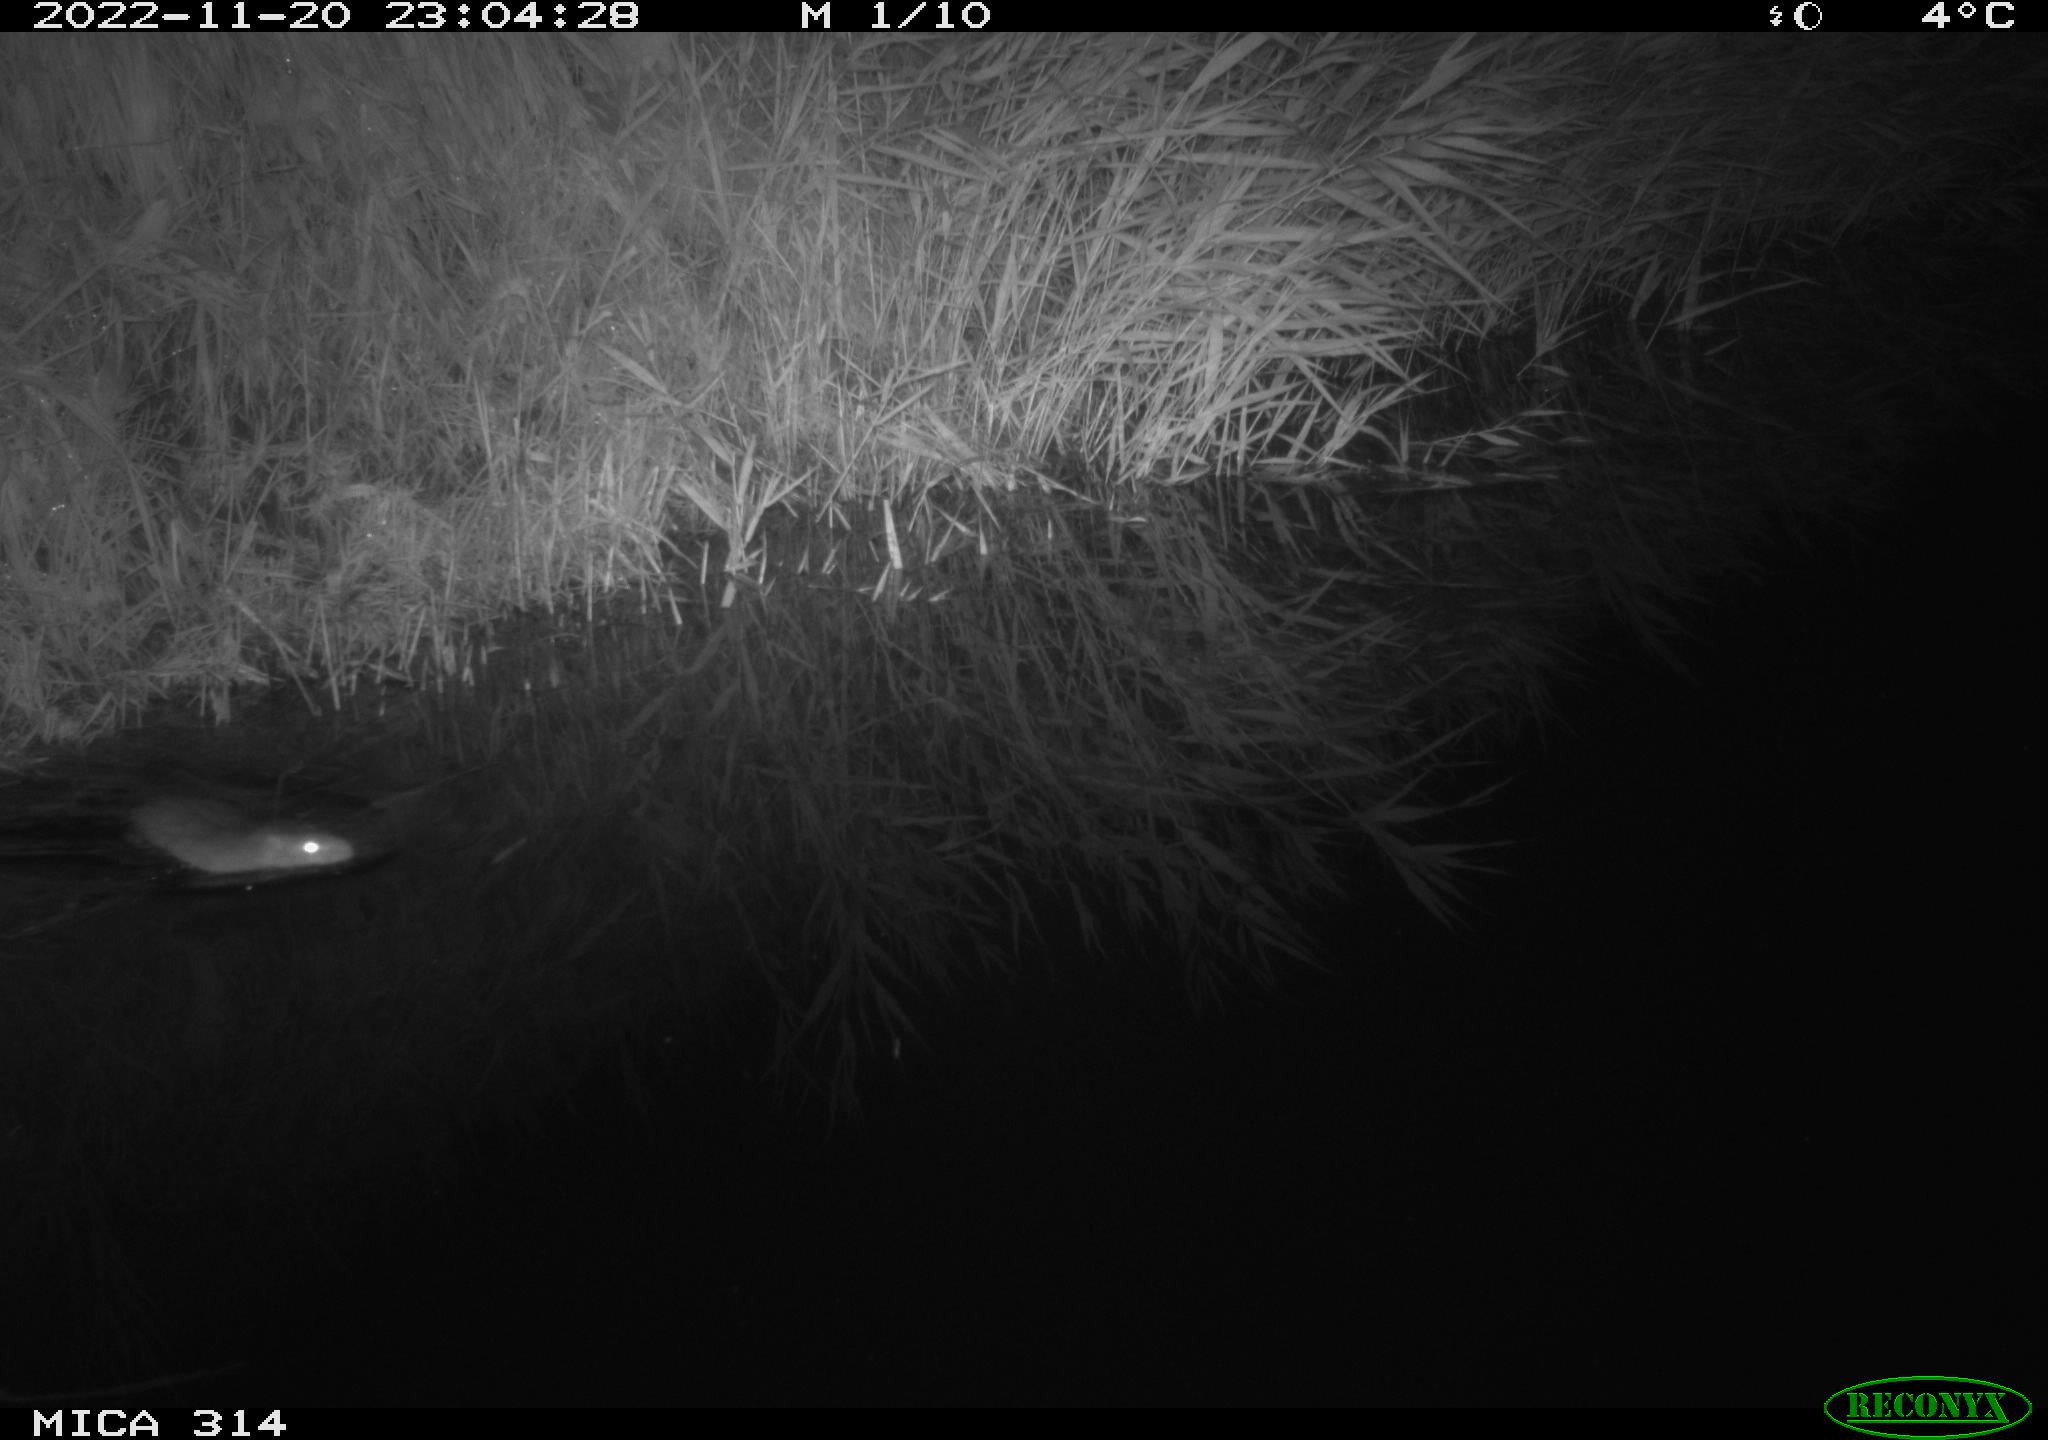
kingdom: Animalia
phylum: Chordata
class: Mammalia
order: Rodentia
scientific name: Rodentia
